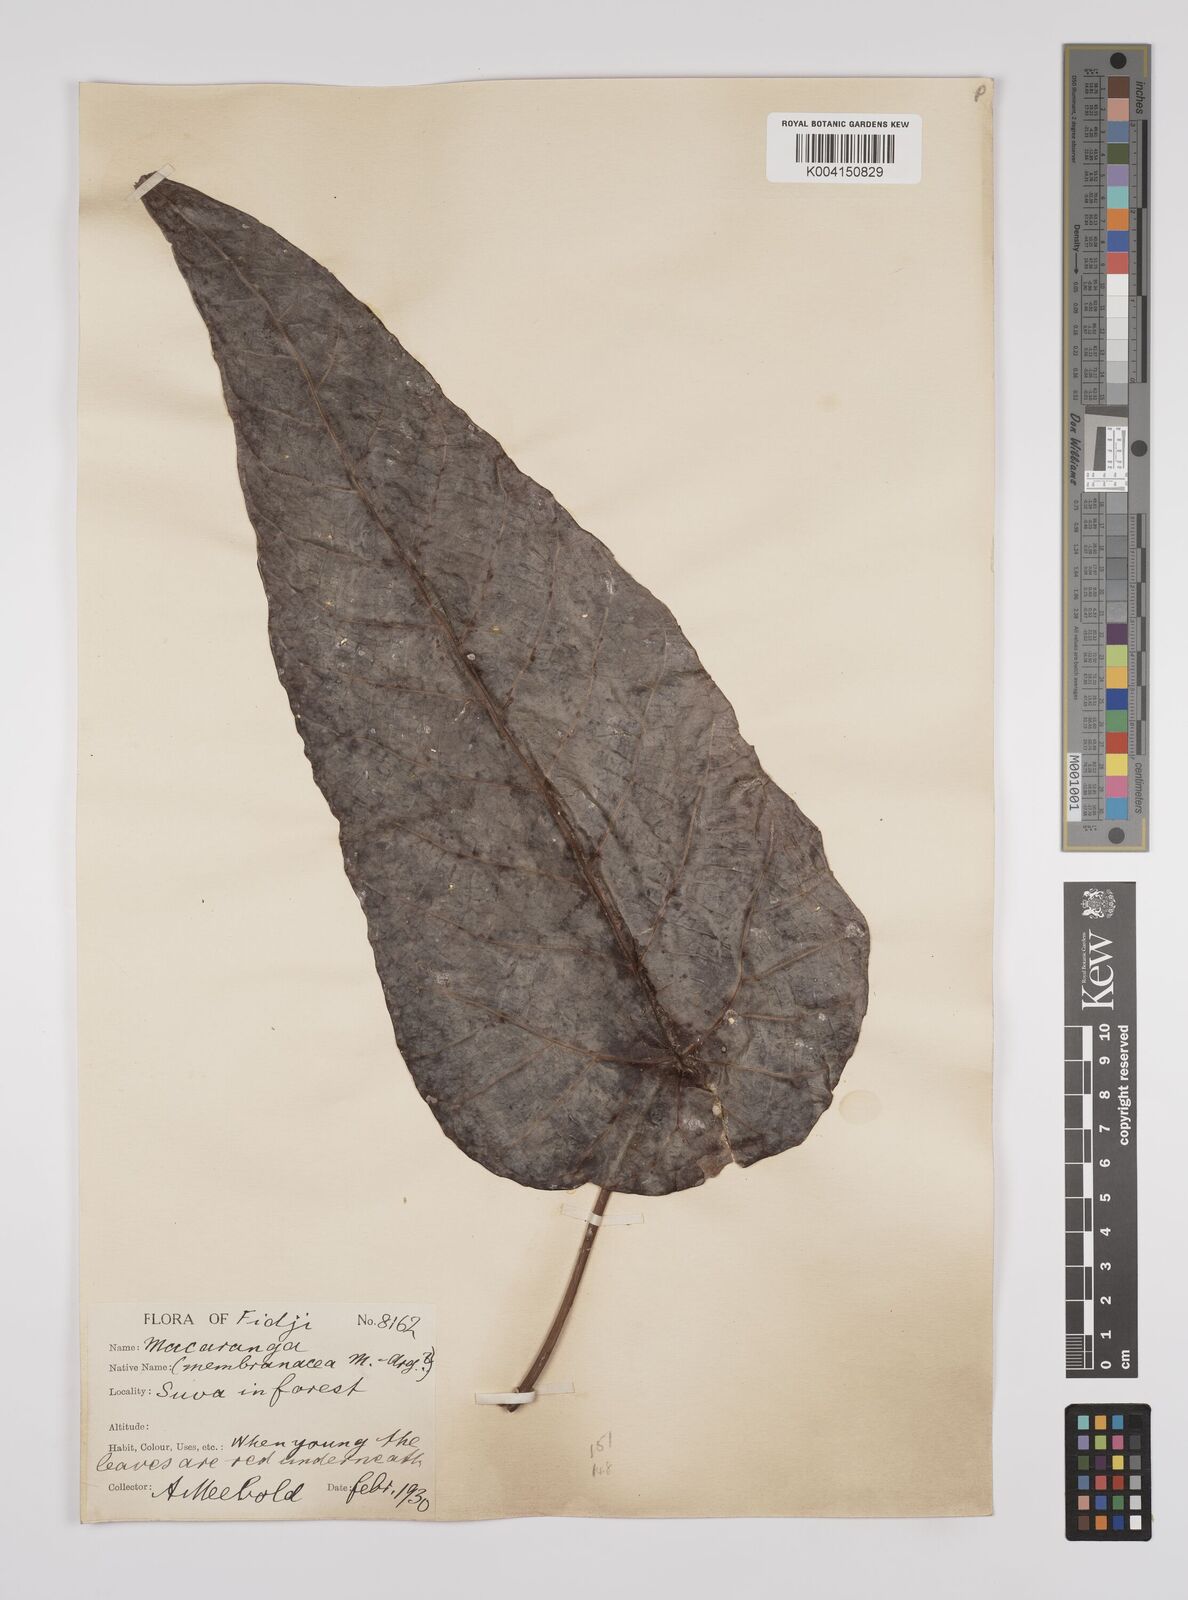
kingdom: Plantae
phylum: Tracheophyta
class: Magnoliopsida
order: Malpighiales
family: Euphorbiaceae
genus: Macaranga
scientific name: Macaranga vitiensis
